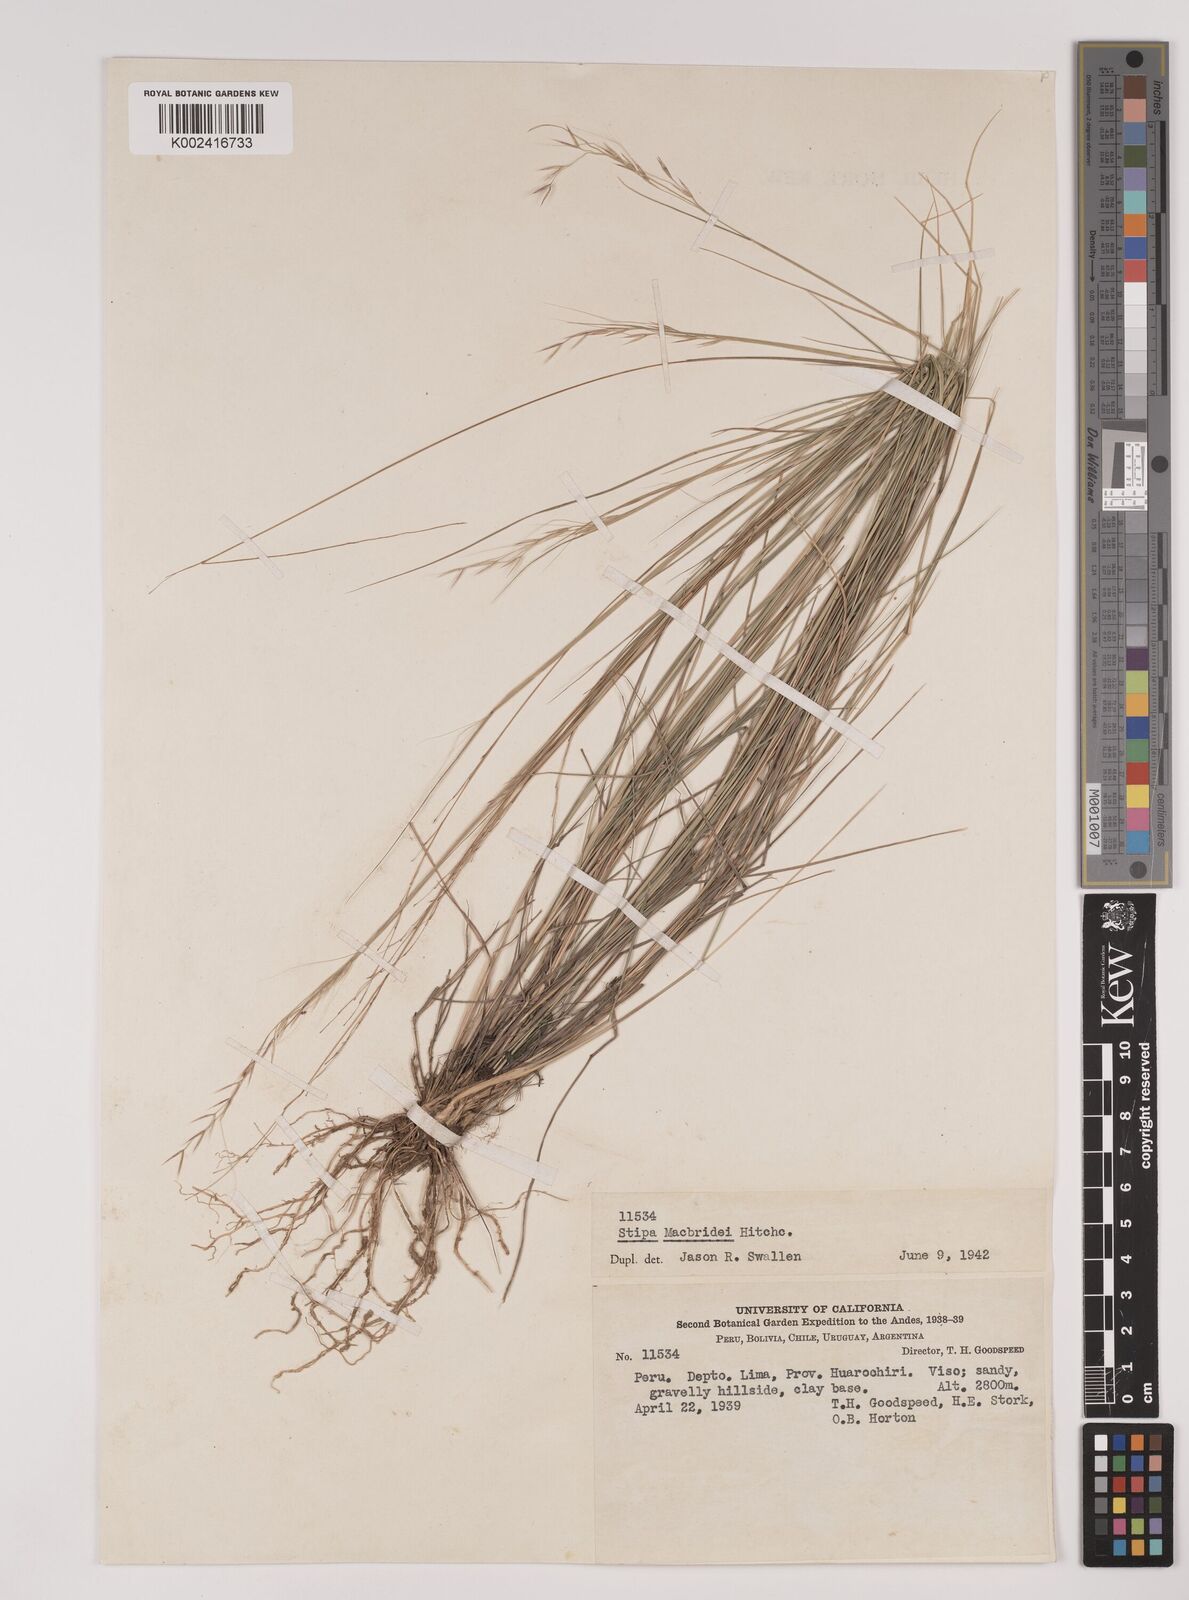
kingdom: Plantae
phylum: Tracheophyta
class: Liliopsida
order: Poales
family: Poaceae
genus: Stipa
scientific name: Stipa macbridei
